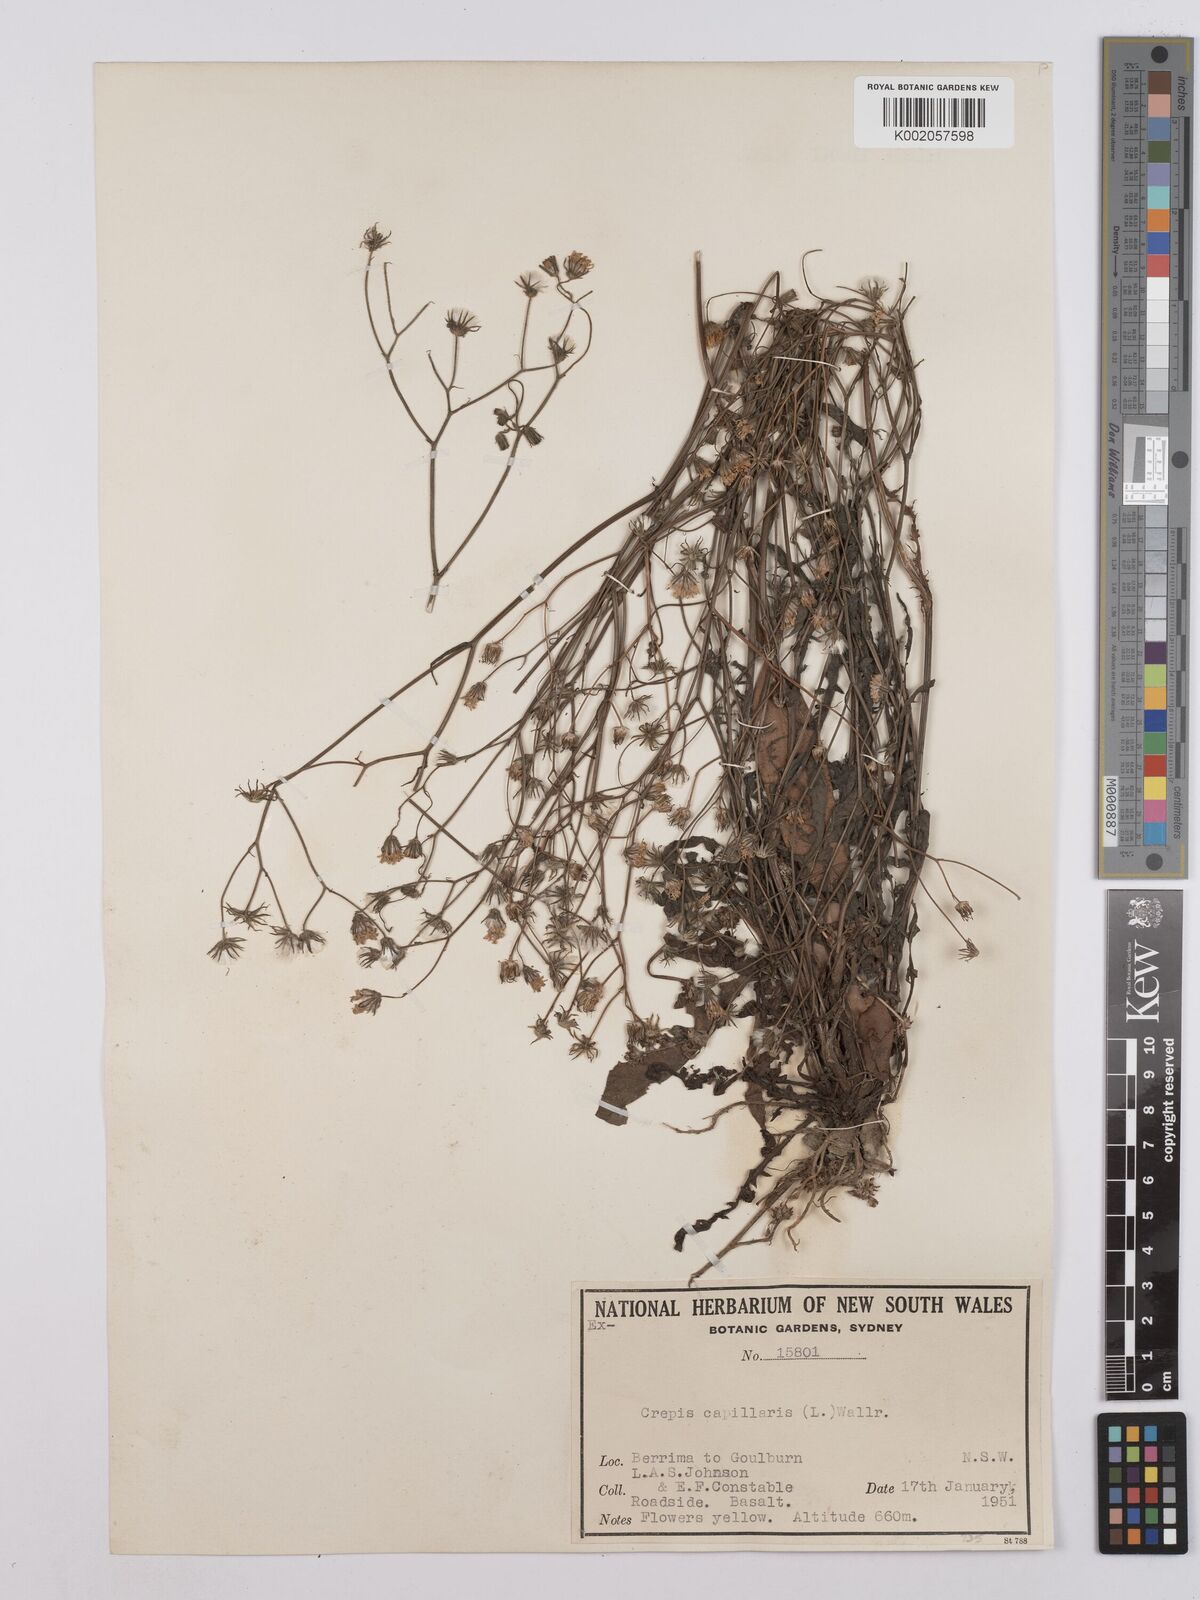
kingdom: Plantae
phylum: Tracheophyta
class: Magnoliopsida
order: Asterales
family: Asteraceae
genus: Crepis
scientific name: Crepis capillaris
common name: Smooth hawksbeard
